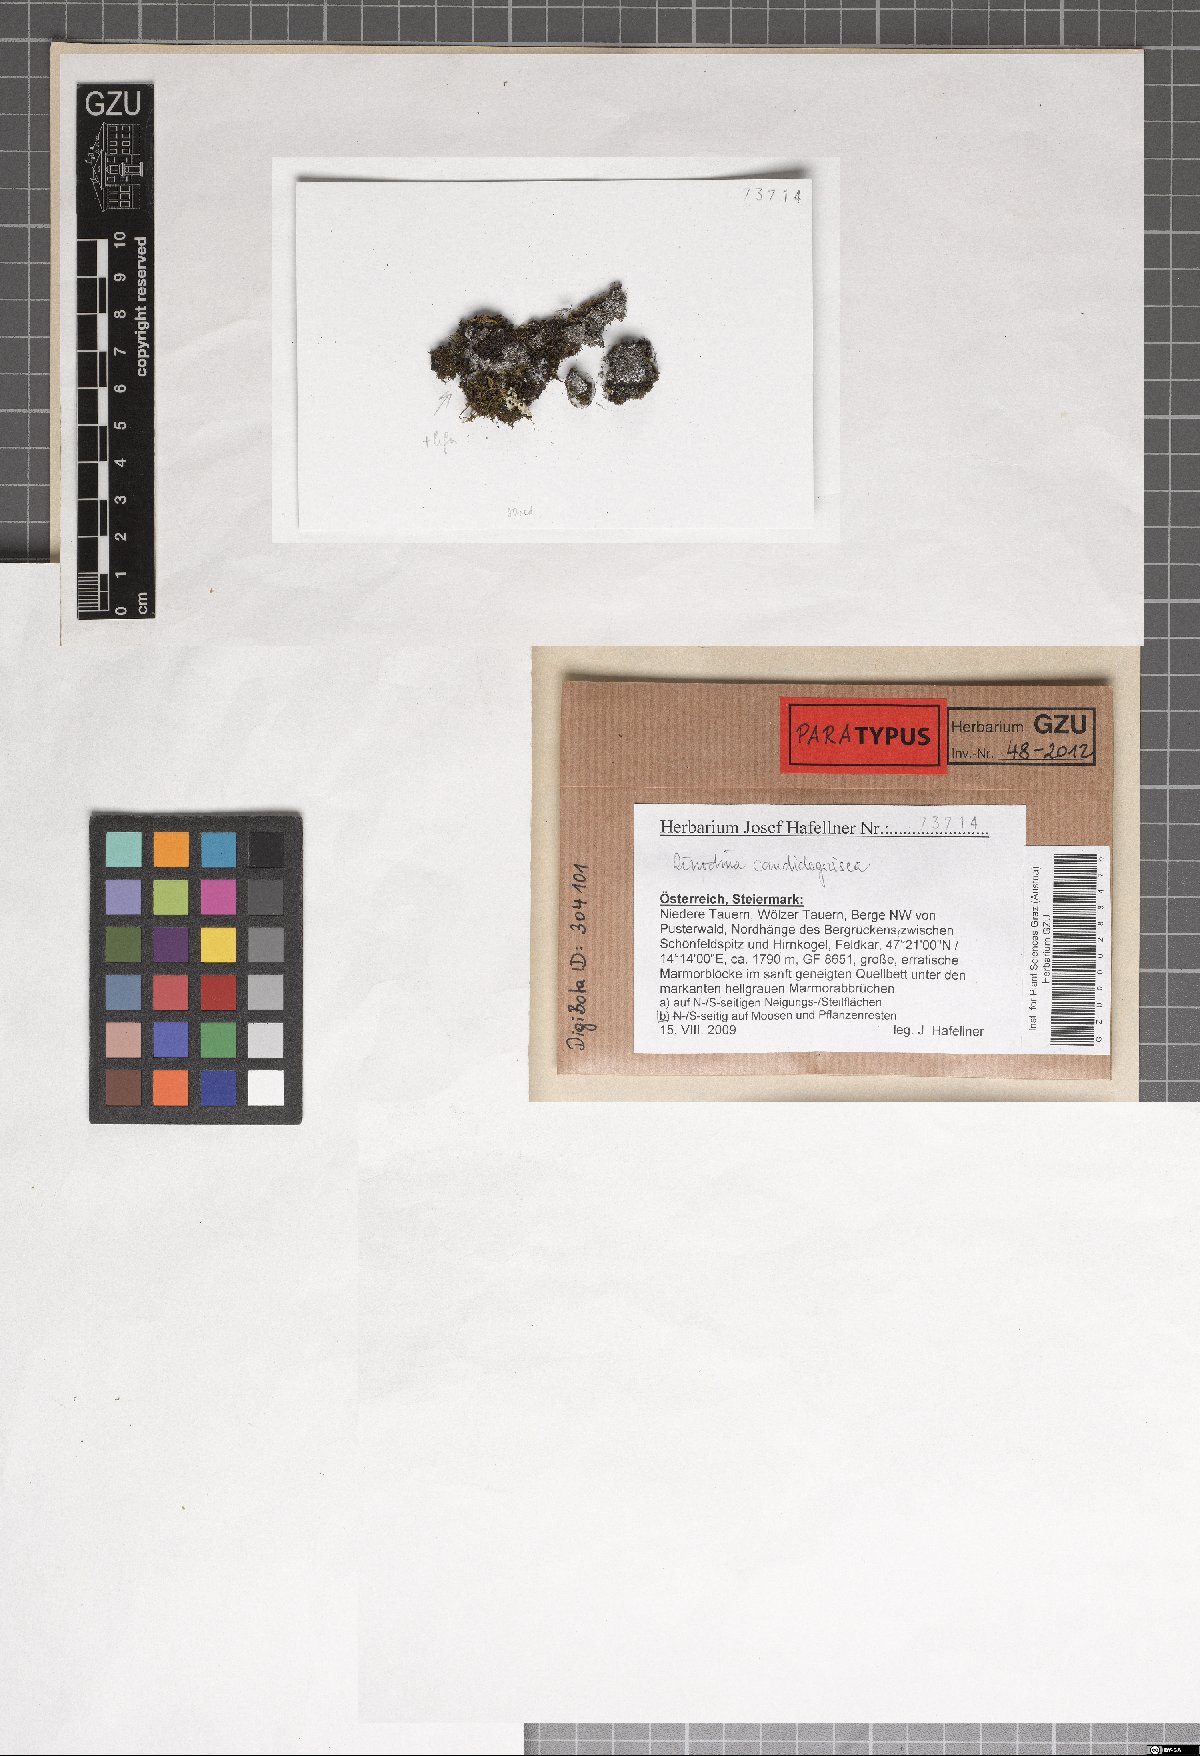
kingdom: Fungi
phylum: Ascomycota
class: Lecanoromycetes
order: Caliciales
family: Physciaceae
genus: Kudratovia
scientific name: Kudratovia candidogrisea
